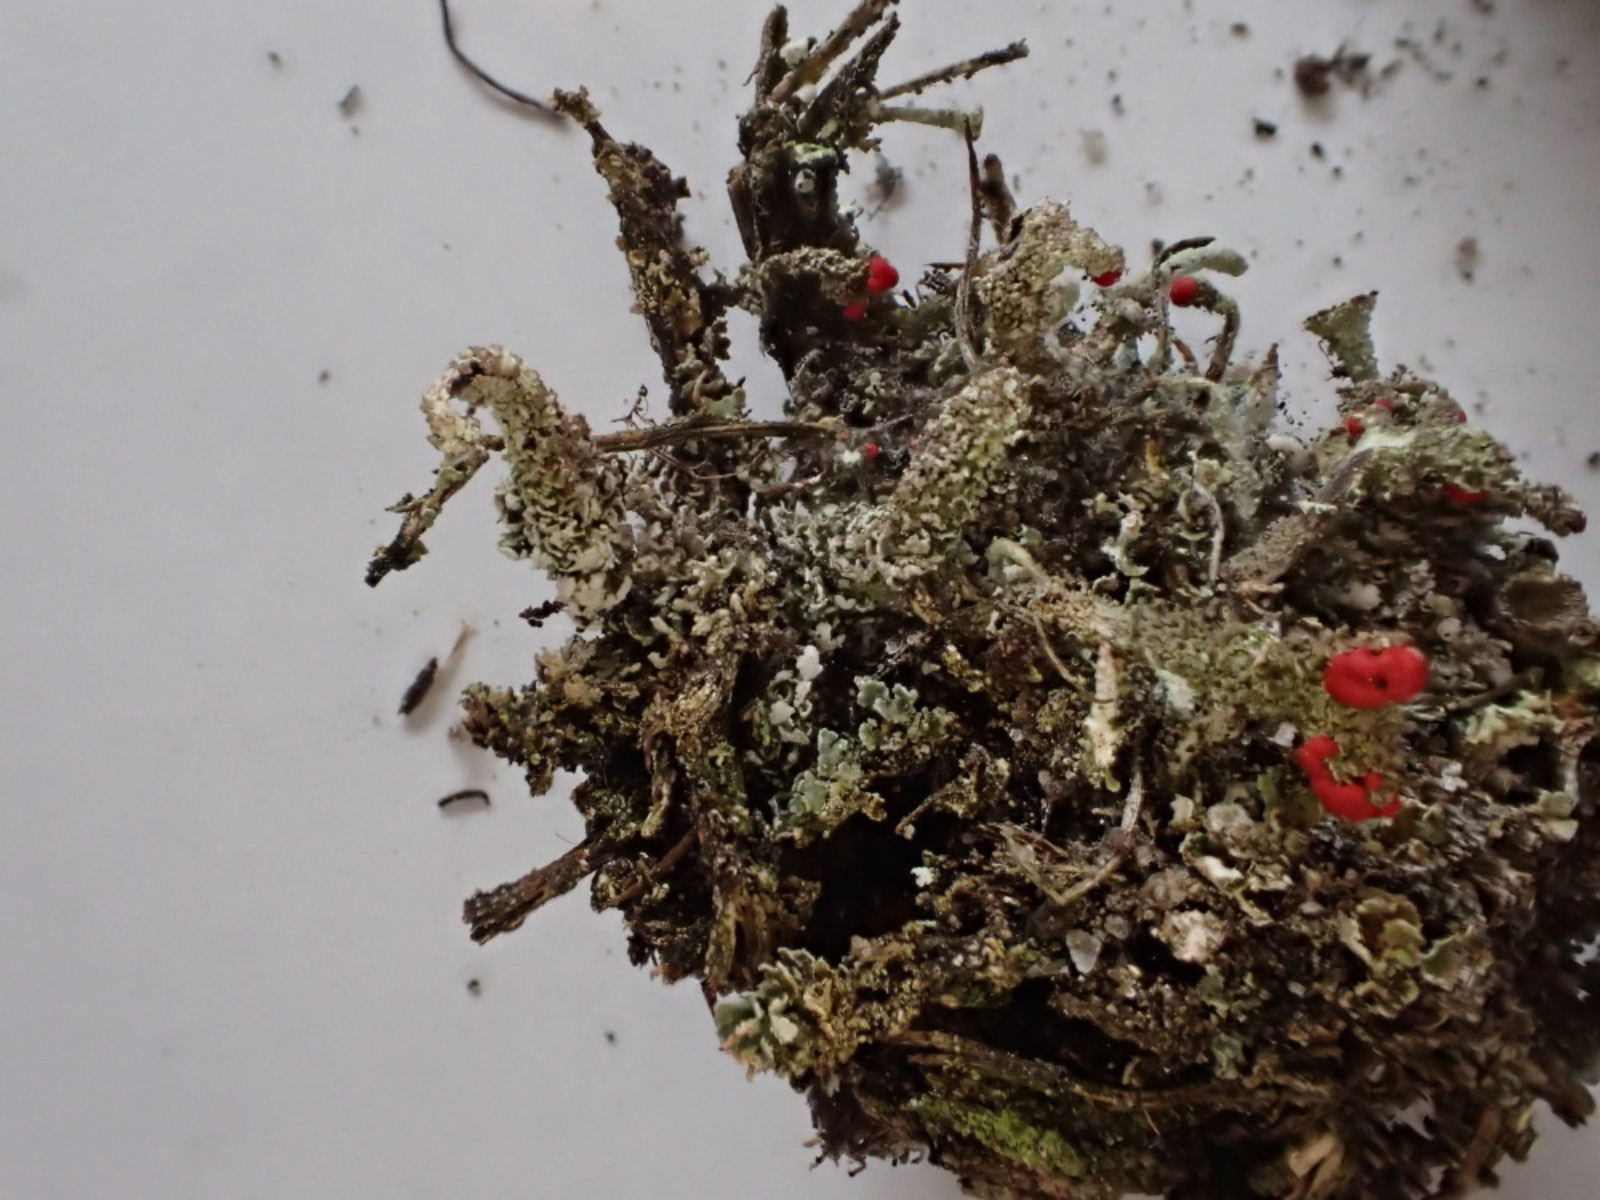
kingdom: Fungi
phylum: Ascomycota
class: Lecanoromycetes
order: Lecanorales
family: Cladoniaceae
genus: Cladonia
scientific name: Cladonia floerkeana
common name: lakrød bægerlav
